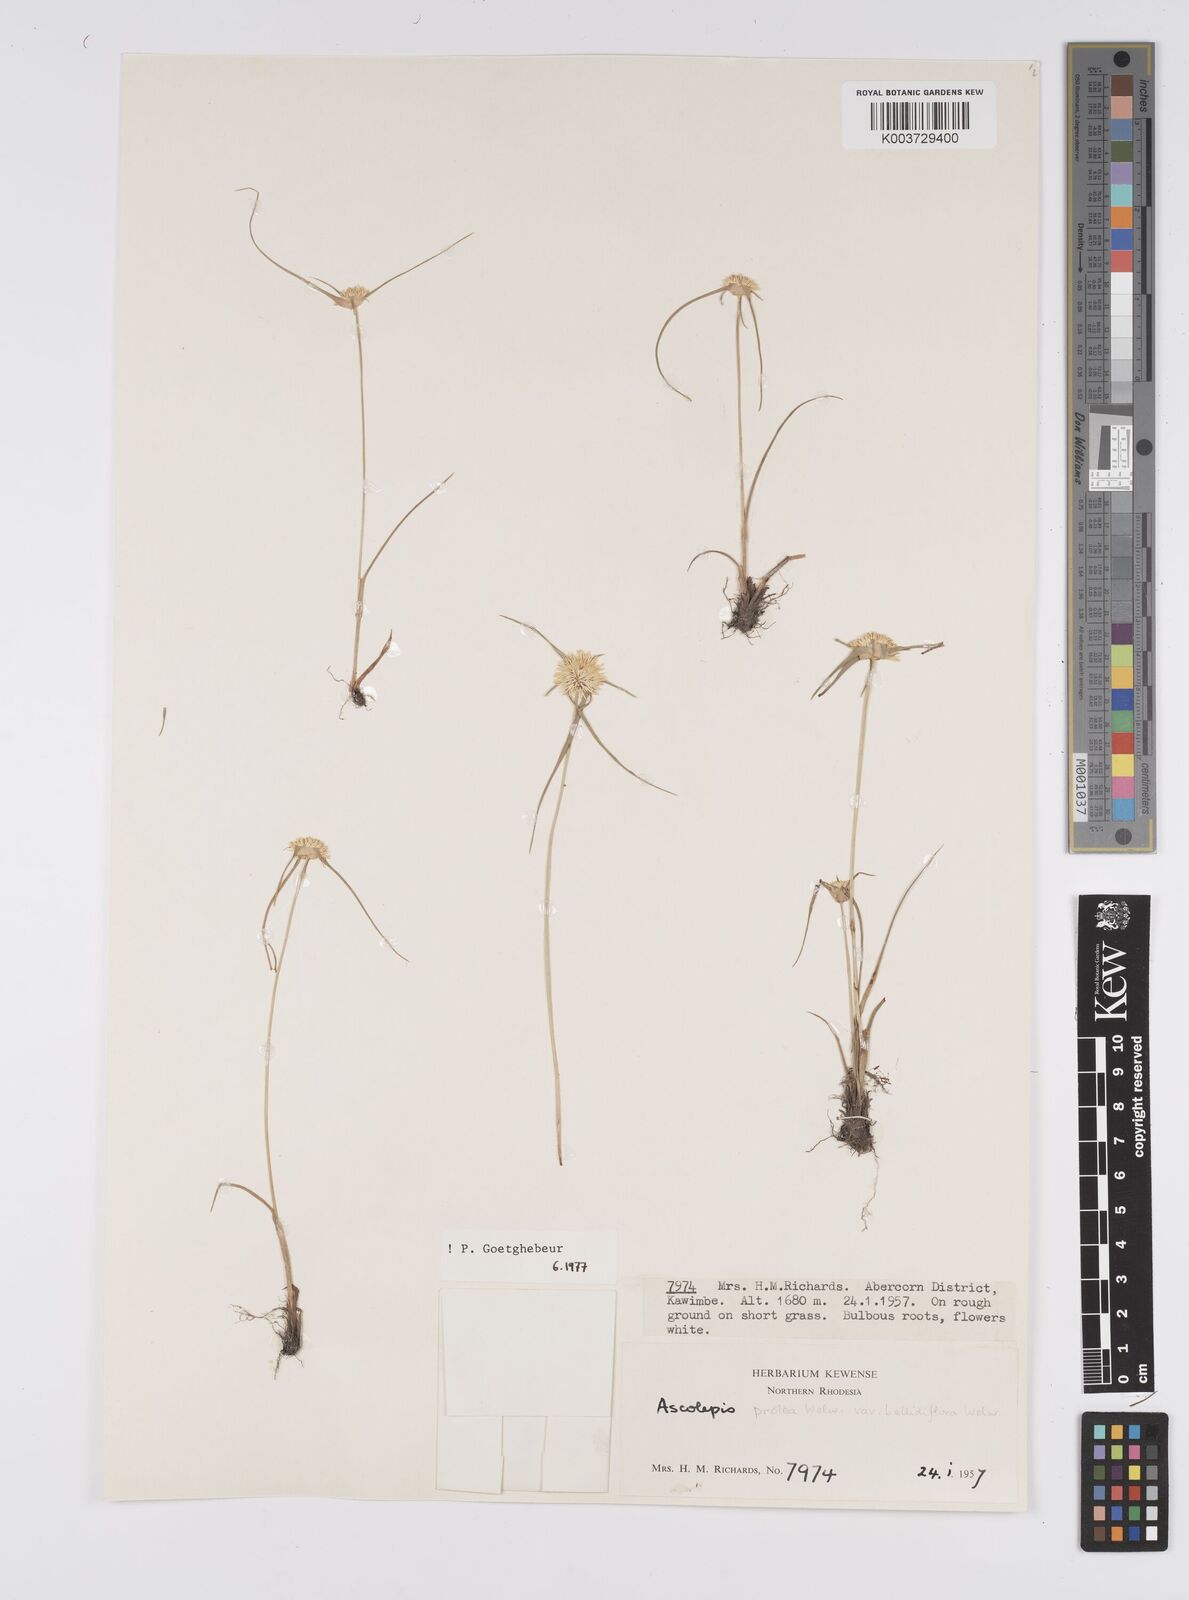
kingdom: Plantae
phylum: Tracheophyta
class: Liliopsida
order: Poales
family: Cyperaceae
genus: Cyperus
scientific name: Cyperus proteus
